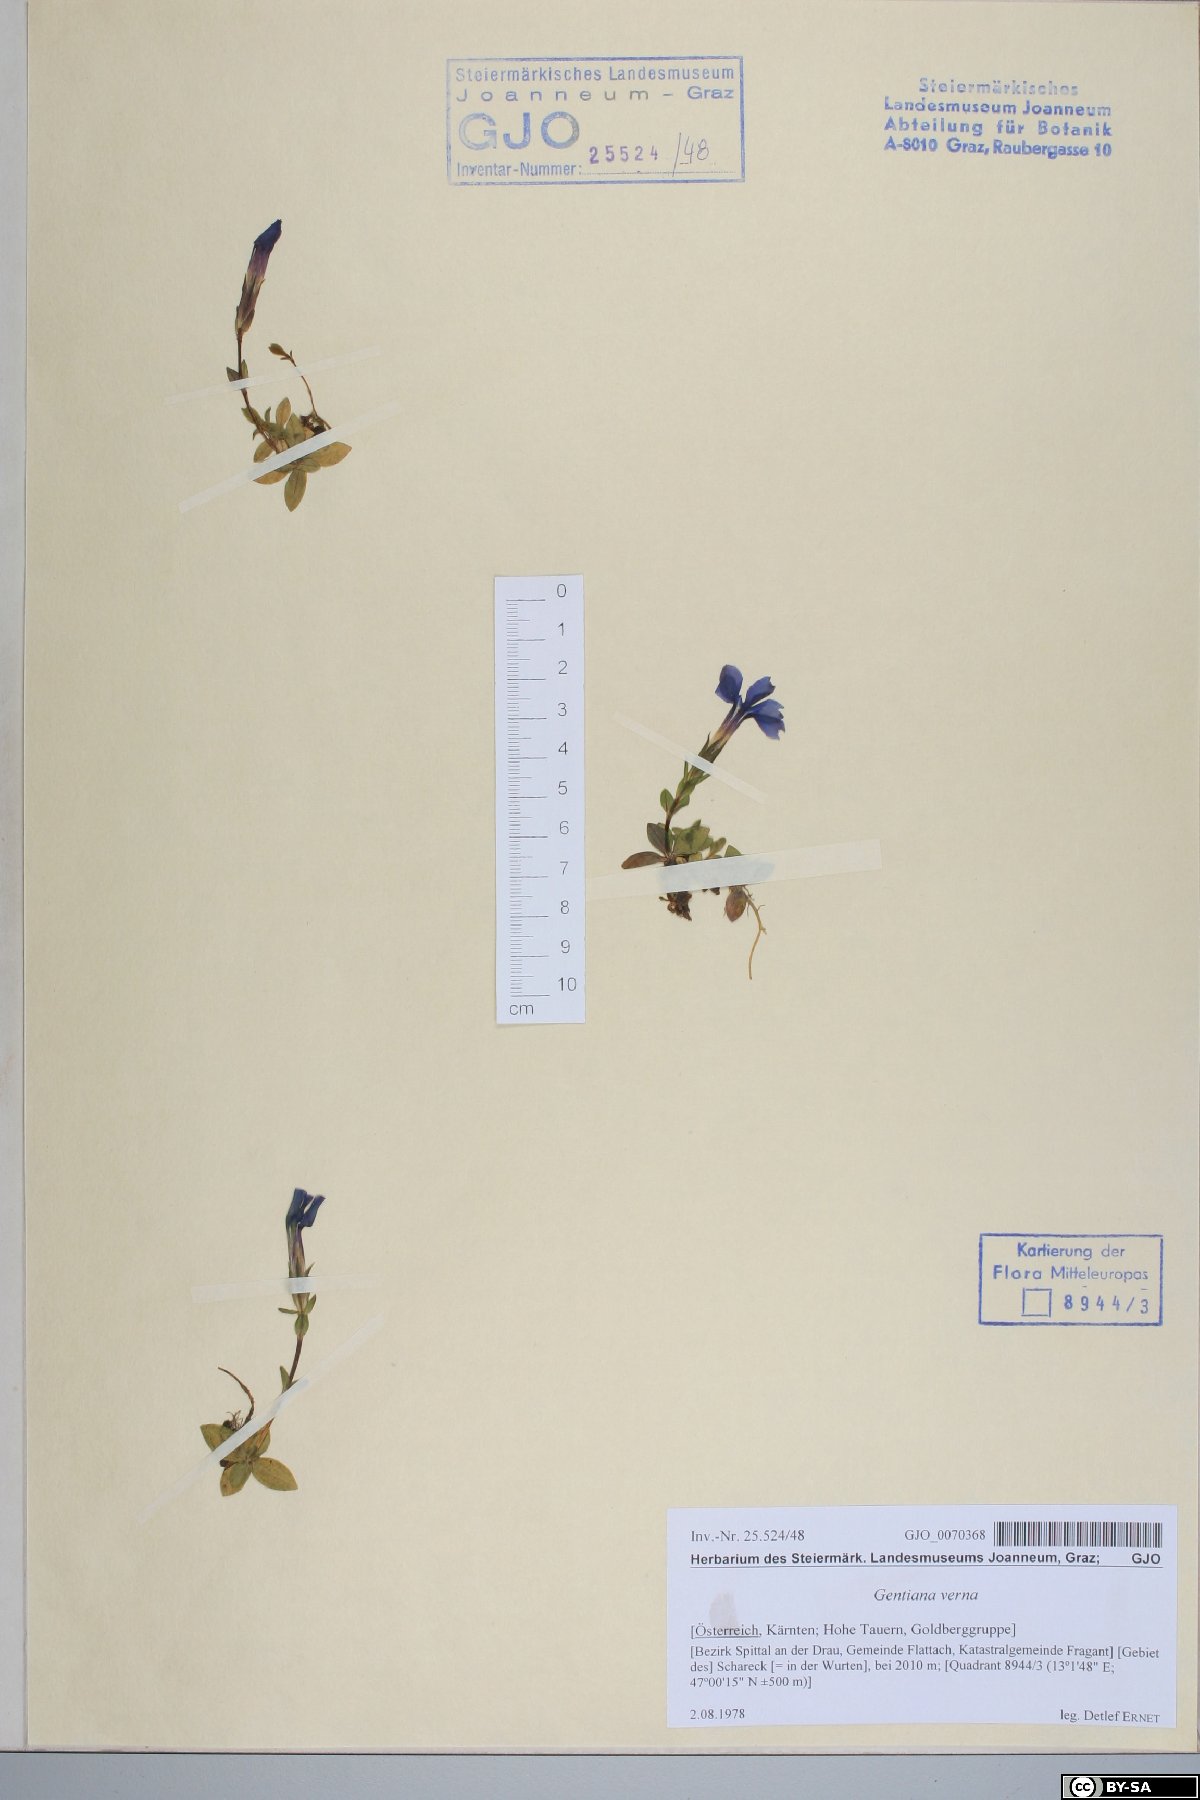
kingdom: Plantae
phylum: Tracheophyta
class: Magnoliopsida
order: Gentianales
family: Gentianaceae
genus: Gentiana
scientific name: Gentiana verna
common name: Spring gentian
